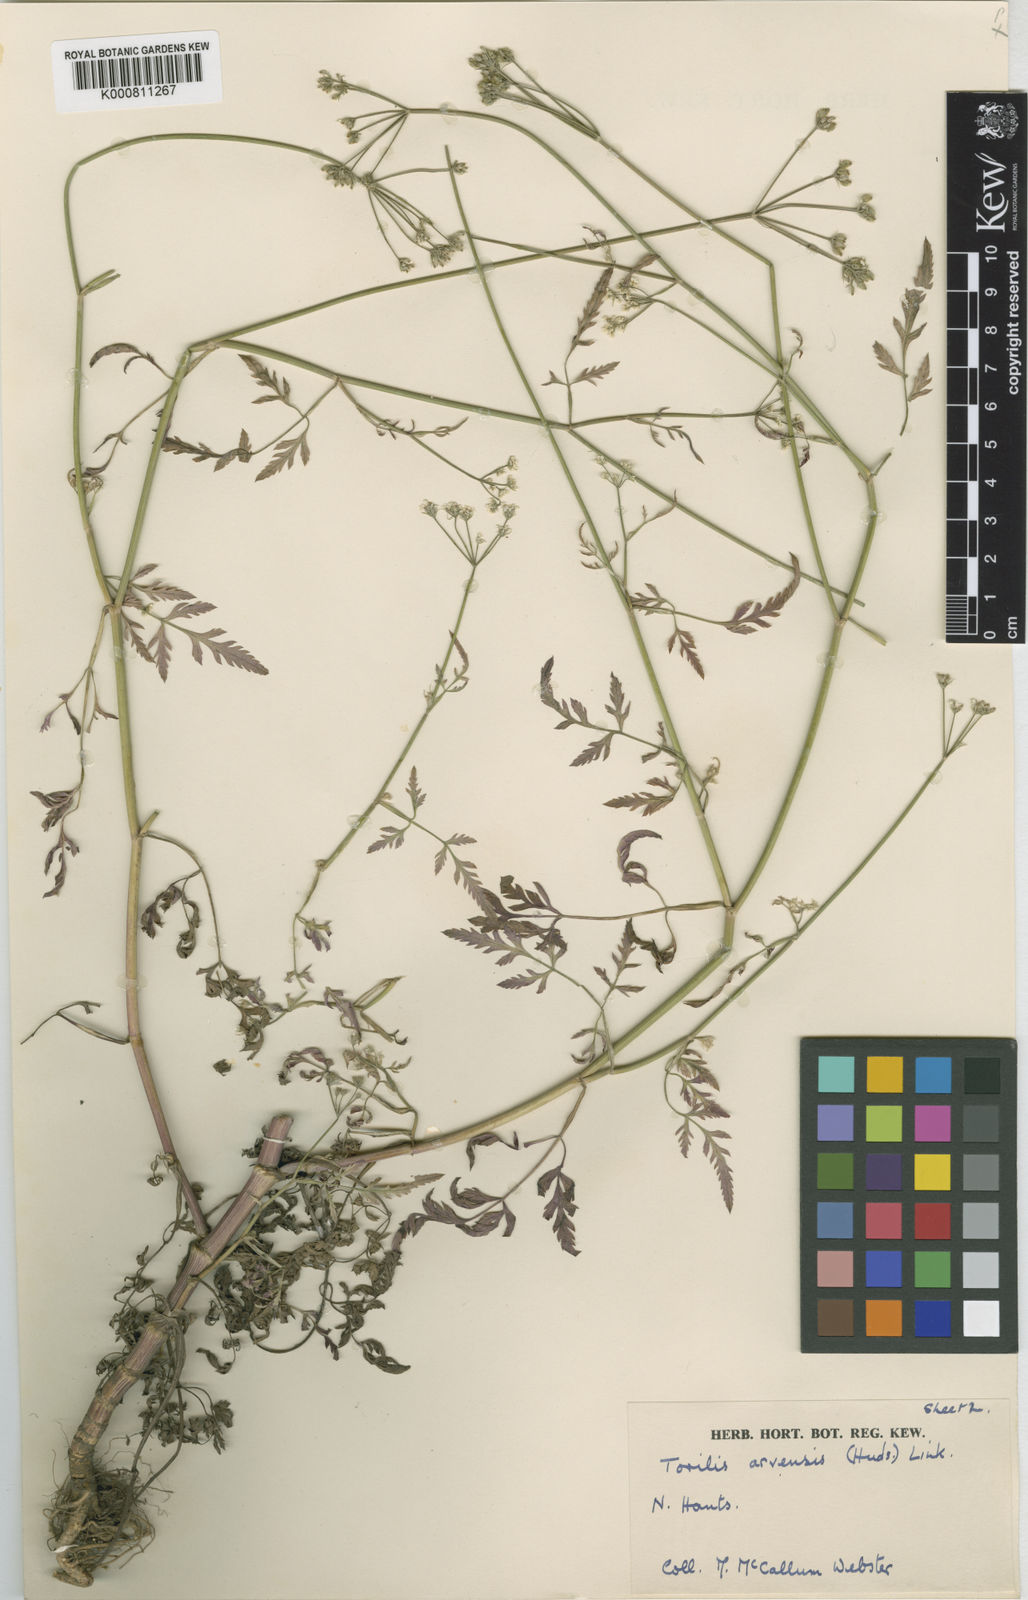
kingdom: Plantae
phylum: Tracheophyta
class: Magnoliopsida
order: Apiales
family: Apiaceae
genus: Torilis
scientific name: Torilis arvensis
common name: Spreading hedge-parsley
